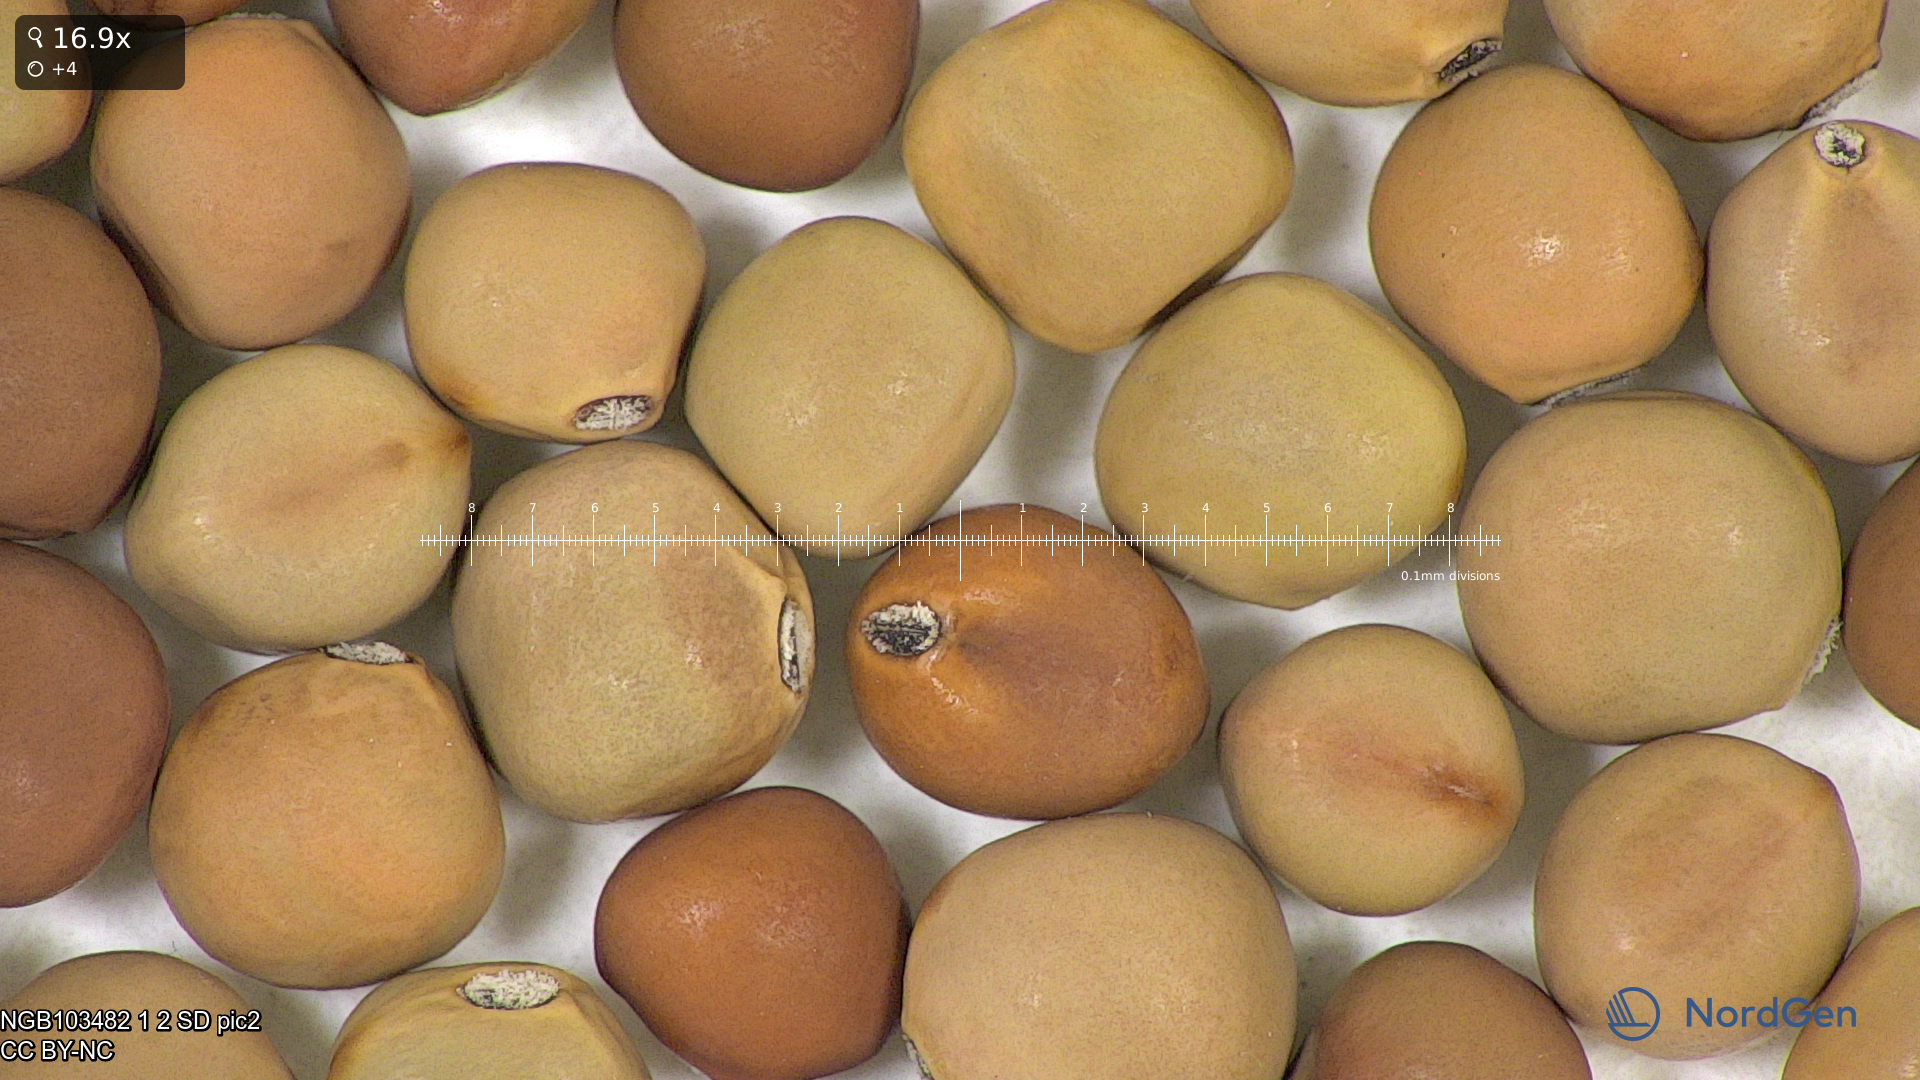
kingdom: Plantae
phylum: Tracheophyta
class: Magnoliopsida
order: Fabales
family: Fabaceae
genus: Lathyrus
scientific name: Lathyrus oleraceus
